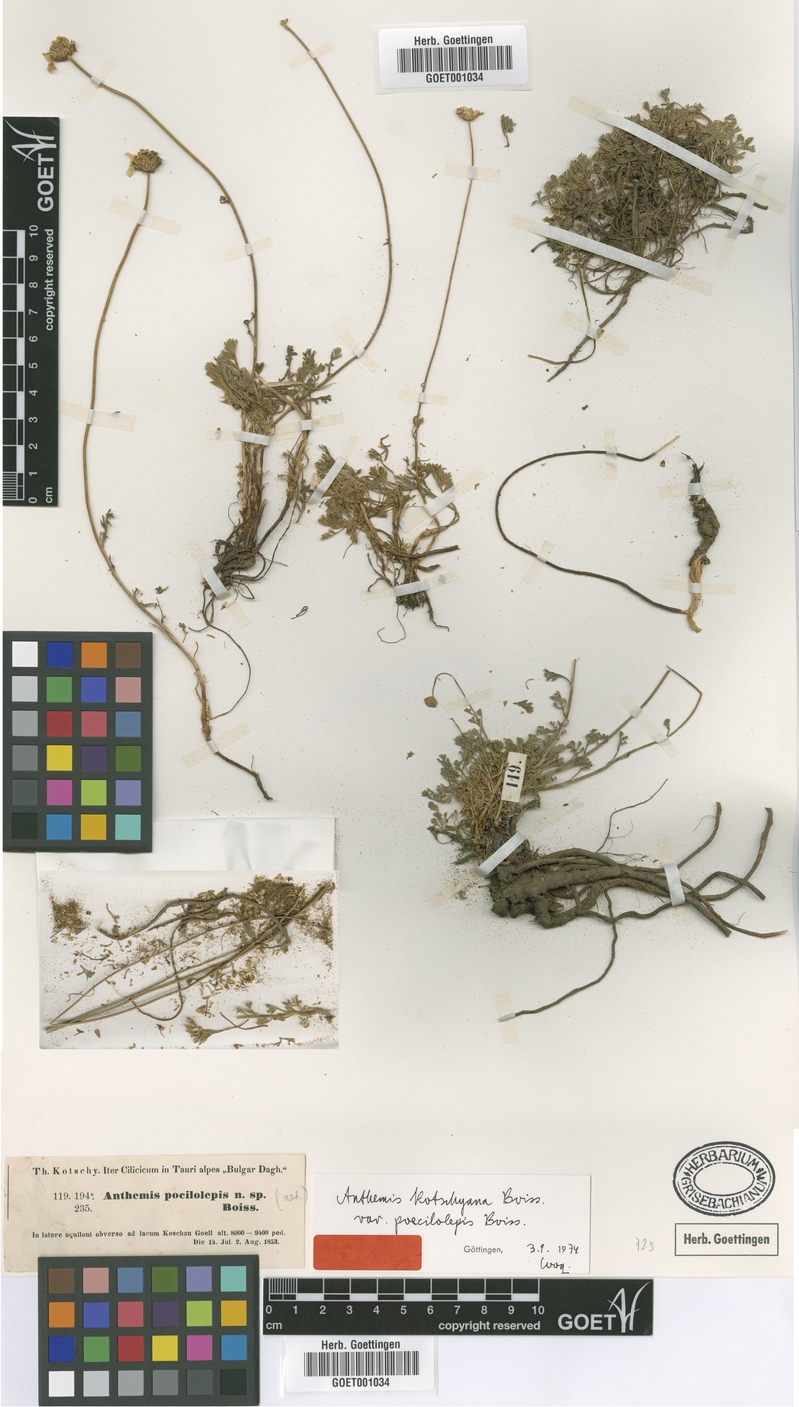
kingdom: Plantae
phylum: Tracheophyta
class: Magnoliopsida
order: Asterales
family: Asteraceae
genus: Anthemis
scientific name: Anthemis kotschyana
